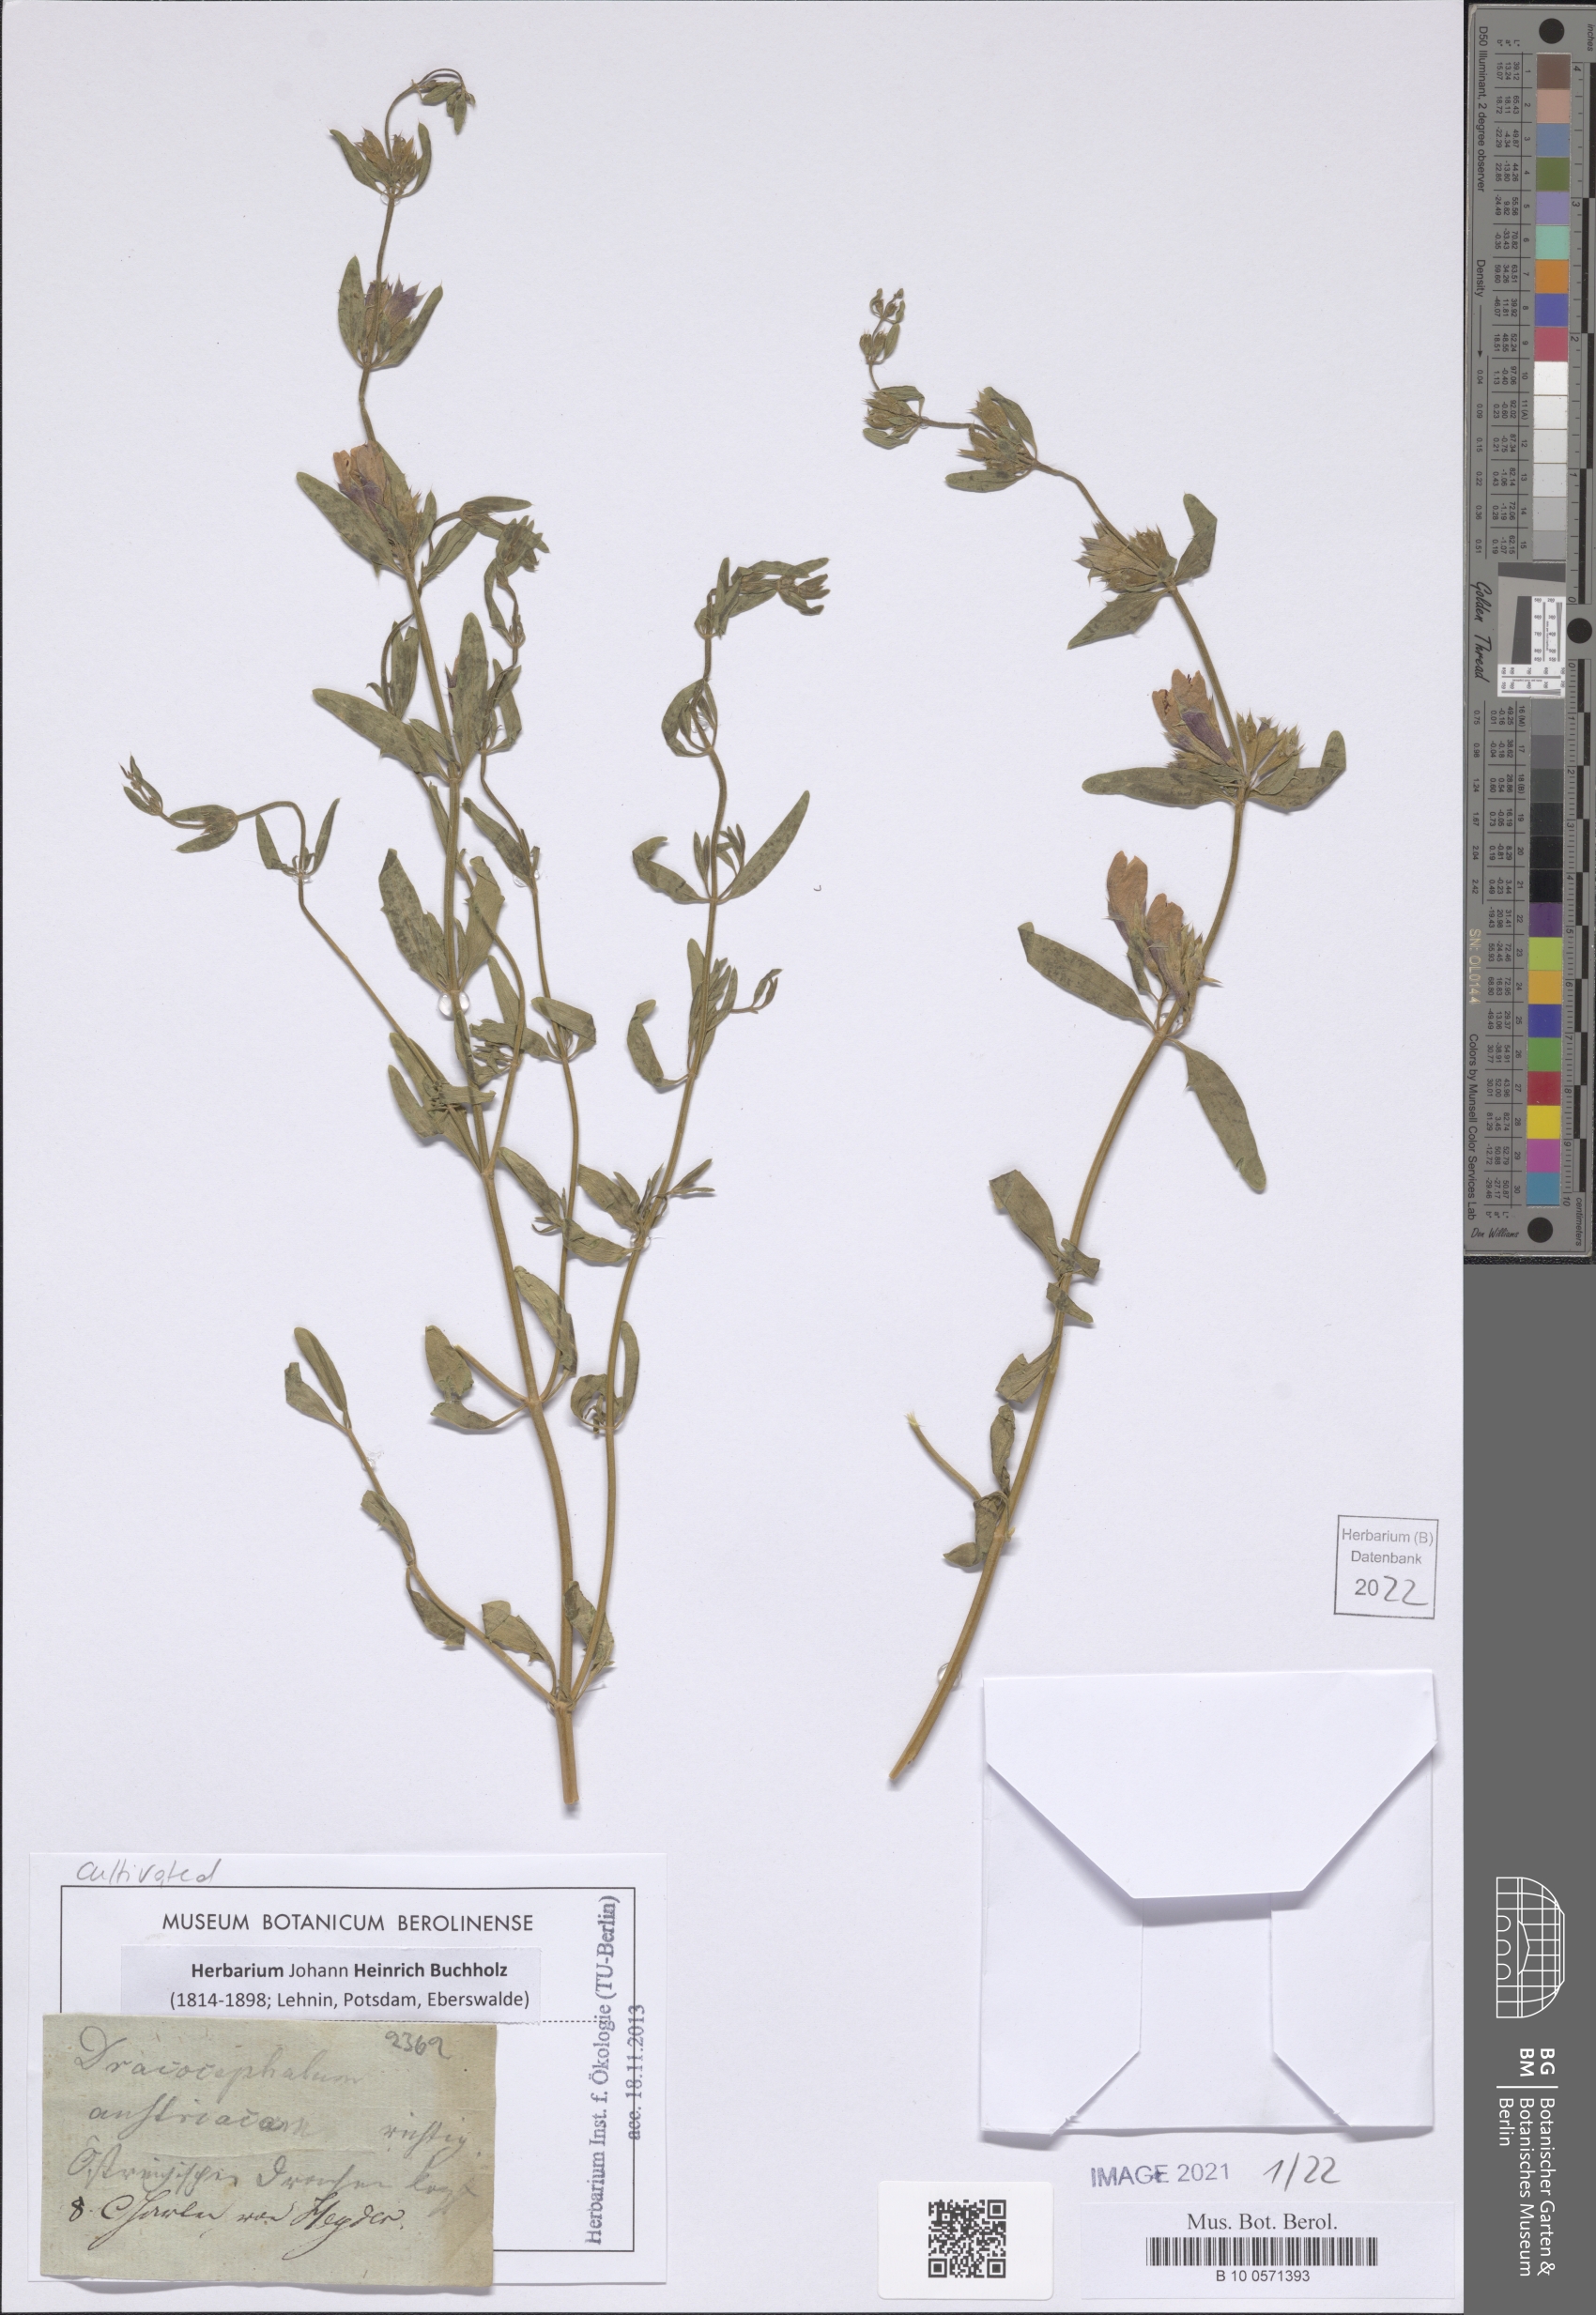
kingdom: Plantae
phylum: Tracheophyta
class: Magnoliopsida
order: Lamiales
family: Lamiaceae
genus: Dracocephalum
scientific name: Dracocephalum austriacum
